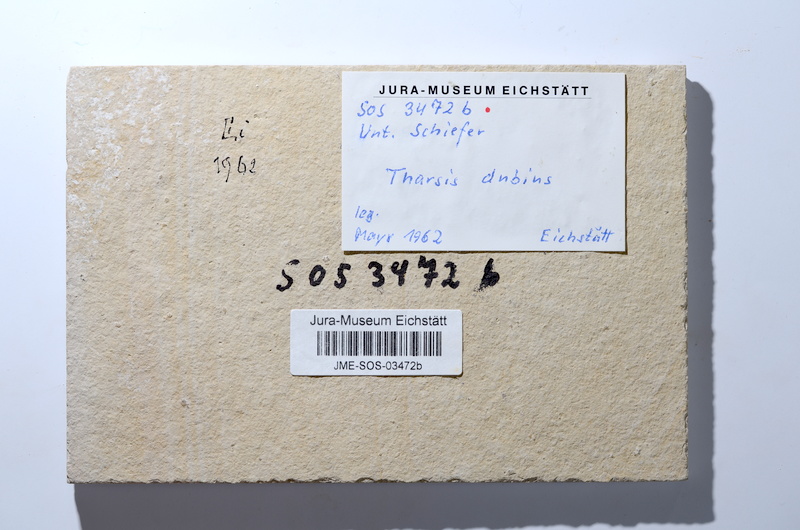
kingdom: Animalia
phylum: Chordata
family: Ascalaboidae
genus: Tharsis
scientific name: Tharsis dubius
